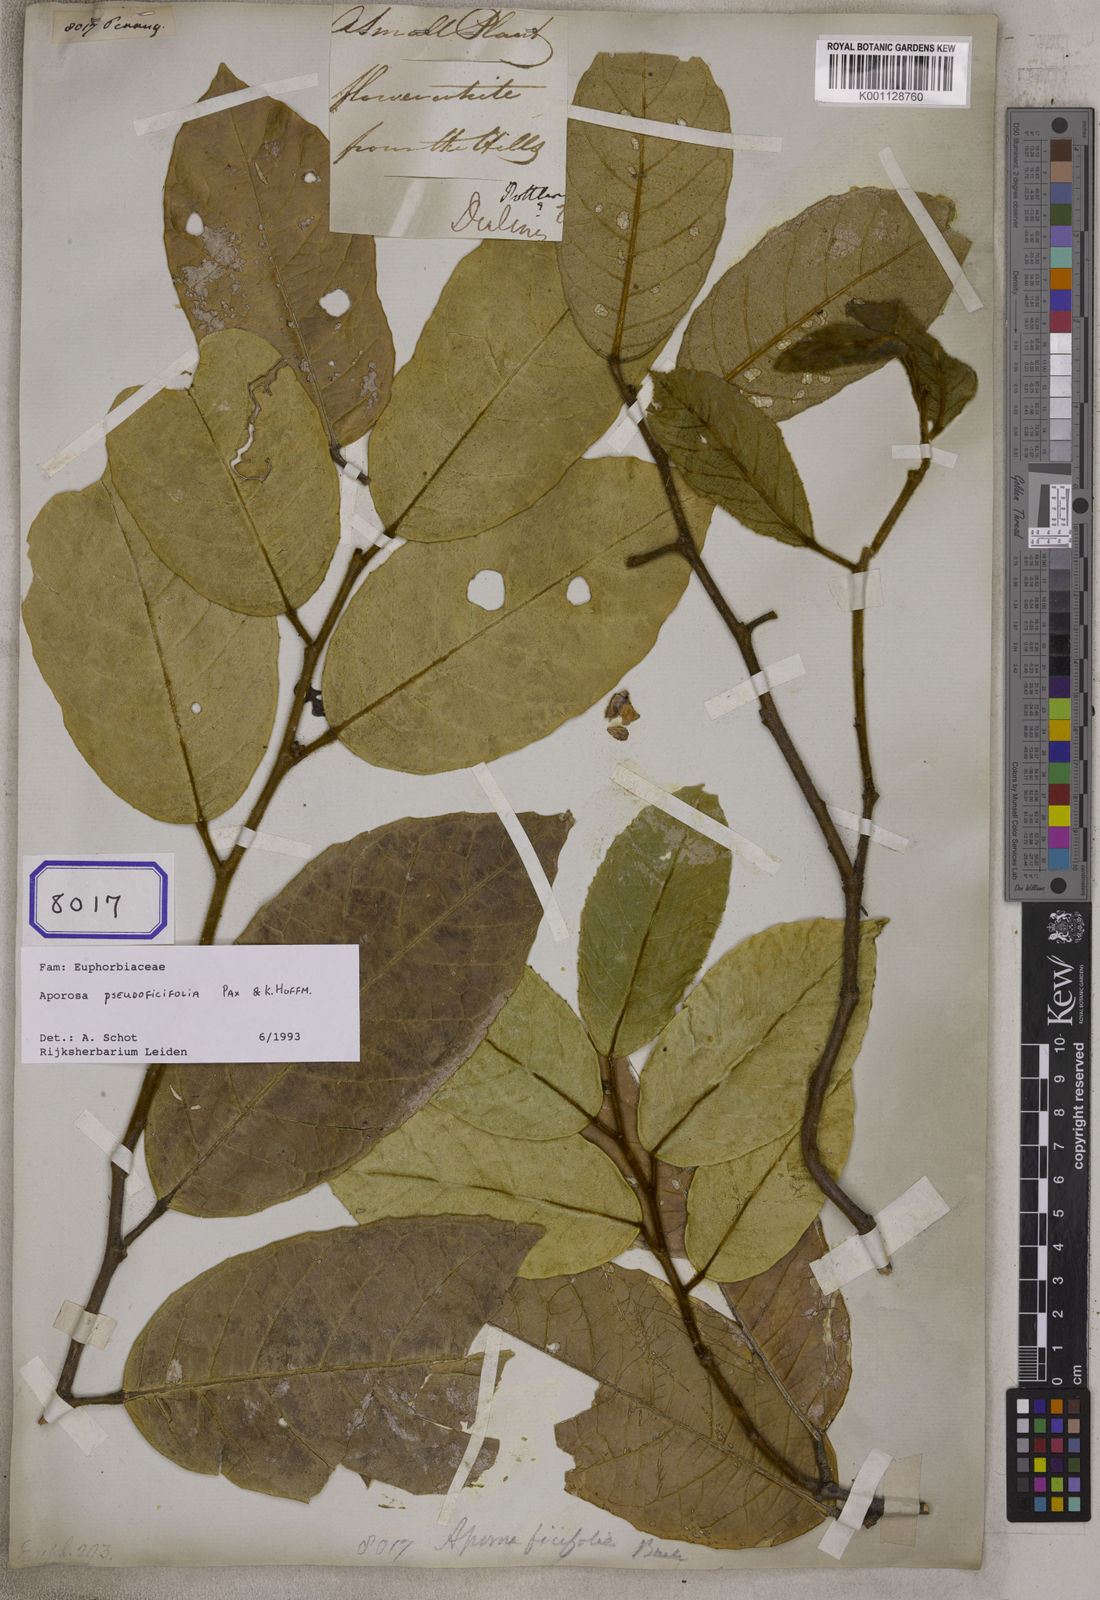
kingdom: Plantae
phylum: Tracheophyta
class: Magnoliopsida
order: Malpighiales
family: Euphorbiaceae
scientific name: Euphorbiaceae
